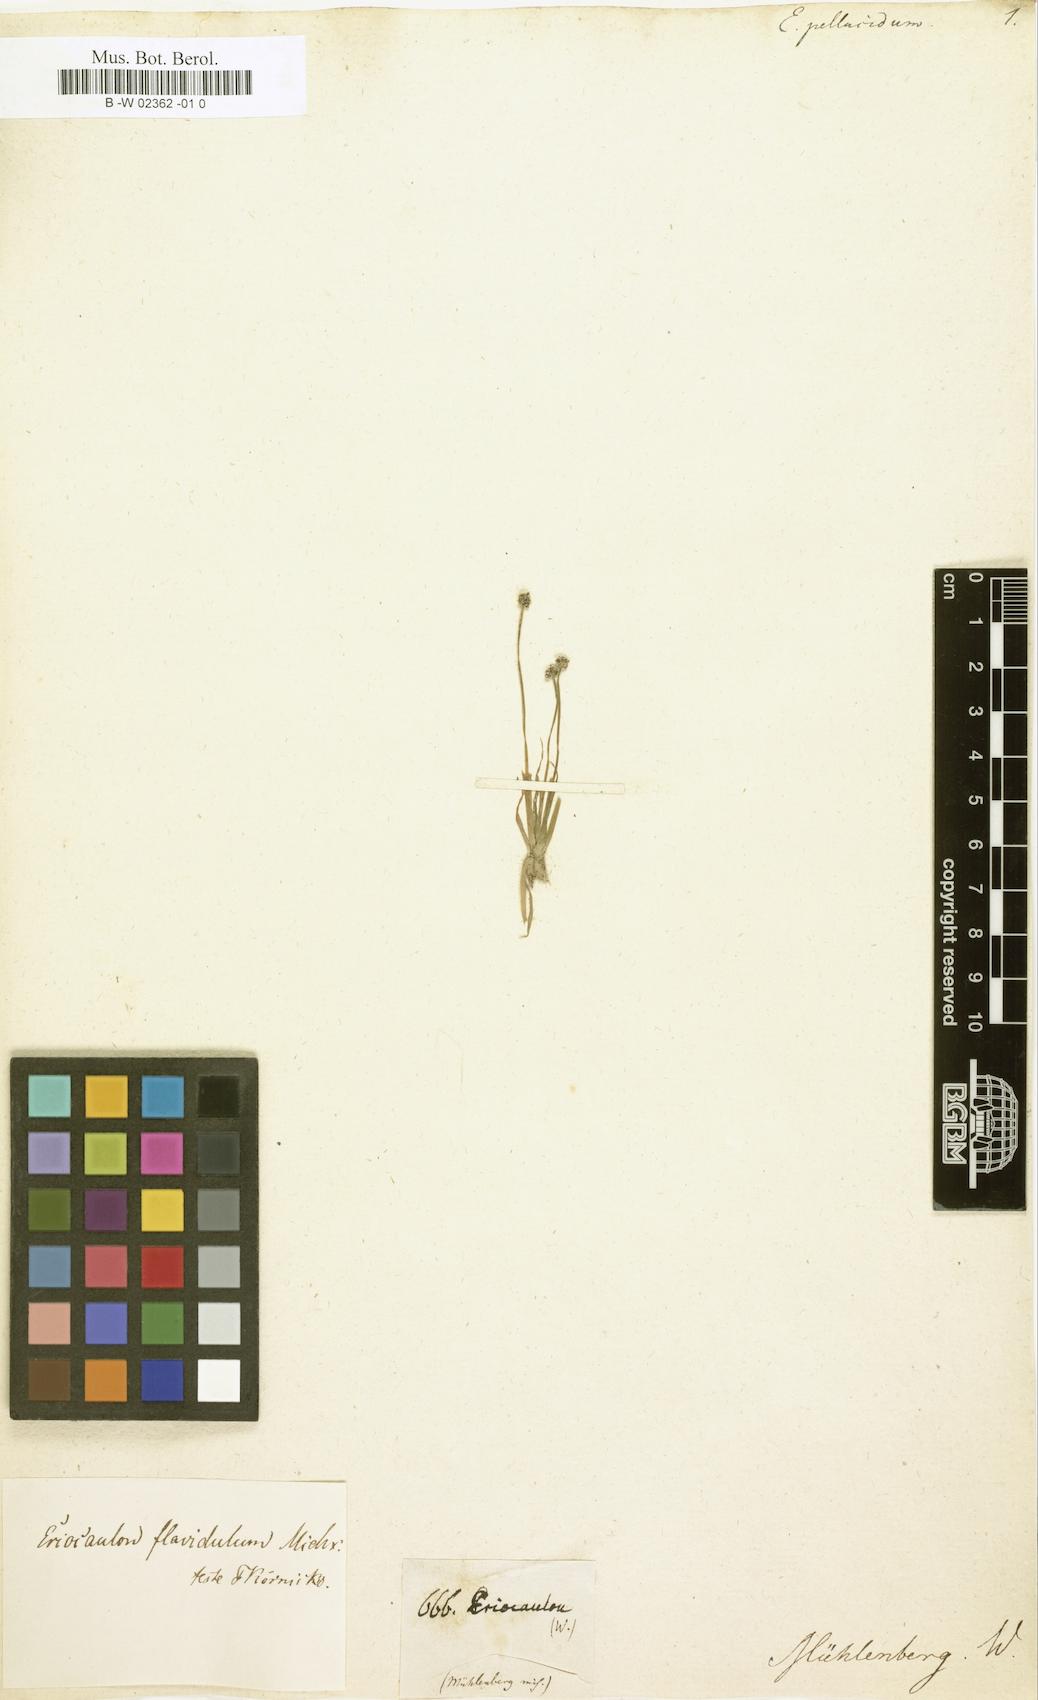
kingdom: Plantae
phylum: Tracheophyta
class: Liliopsida
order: Poales
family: Eriocaulaceae
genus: Eriocaulon
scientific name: Eriocaulon aquaticum
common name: Pipewort
